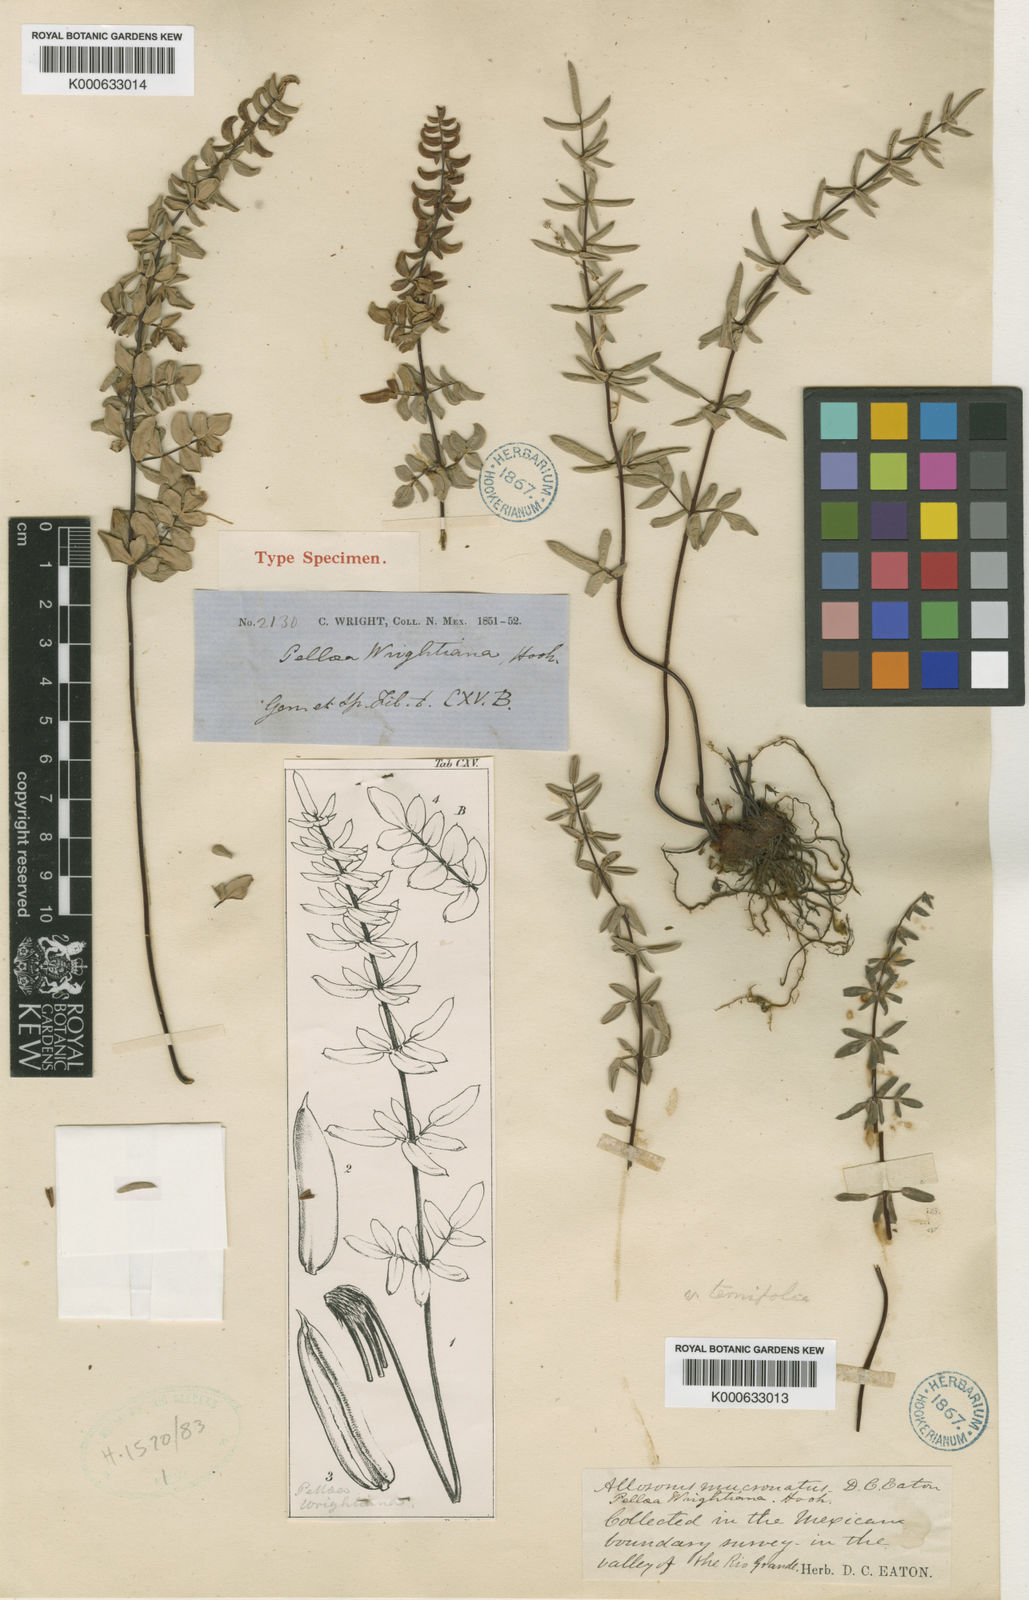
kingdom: Plantae
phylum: Tracheophyta
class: Polypodiopsida
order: Polypodiales
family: Pteridaceae
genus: Pellaea
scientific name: Pellaea wrightiana
